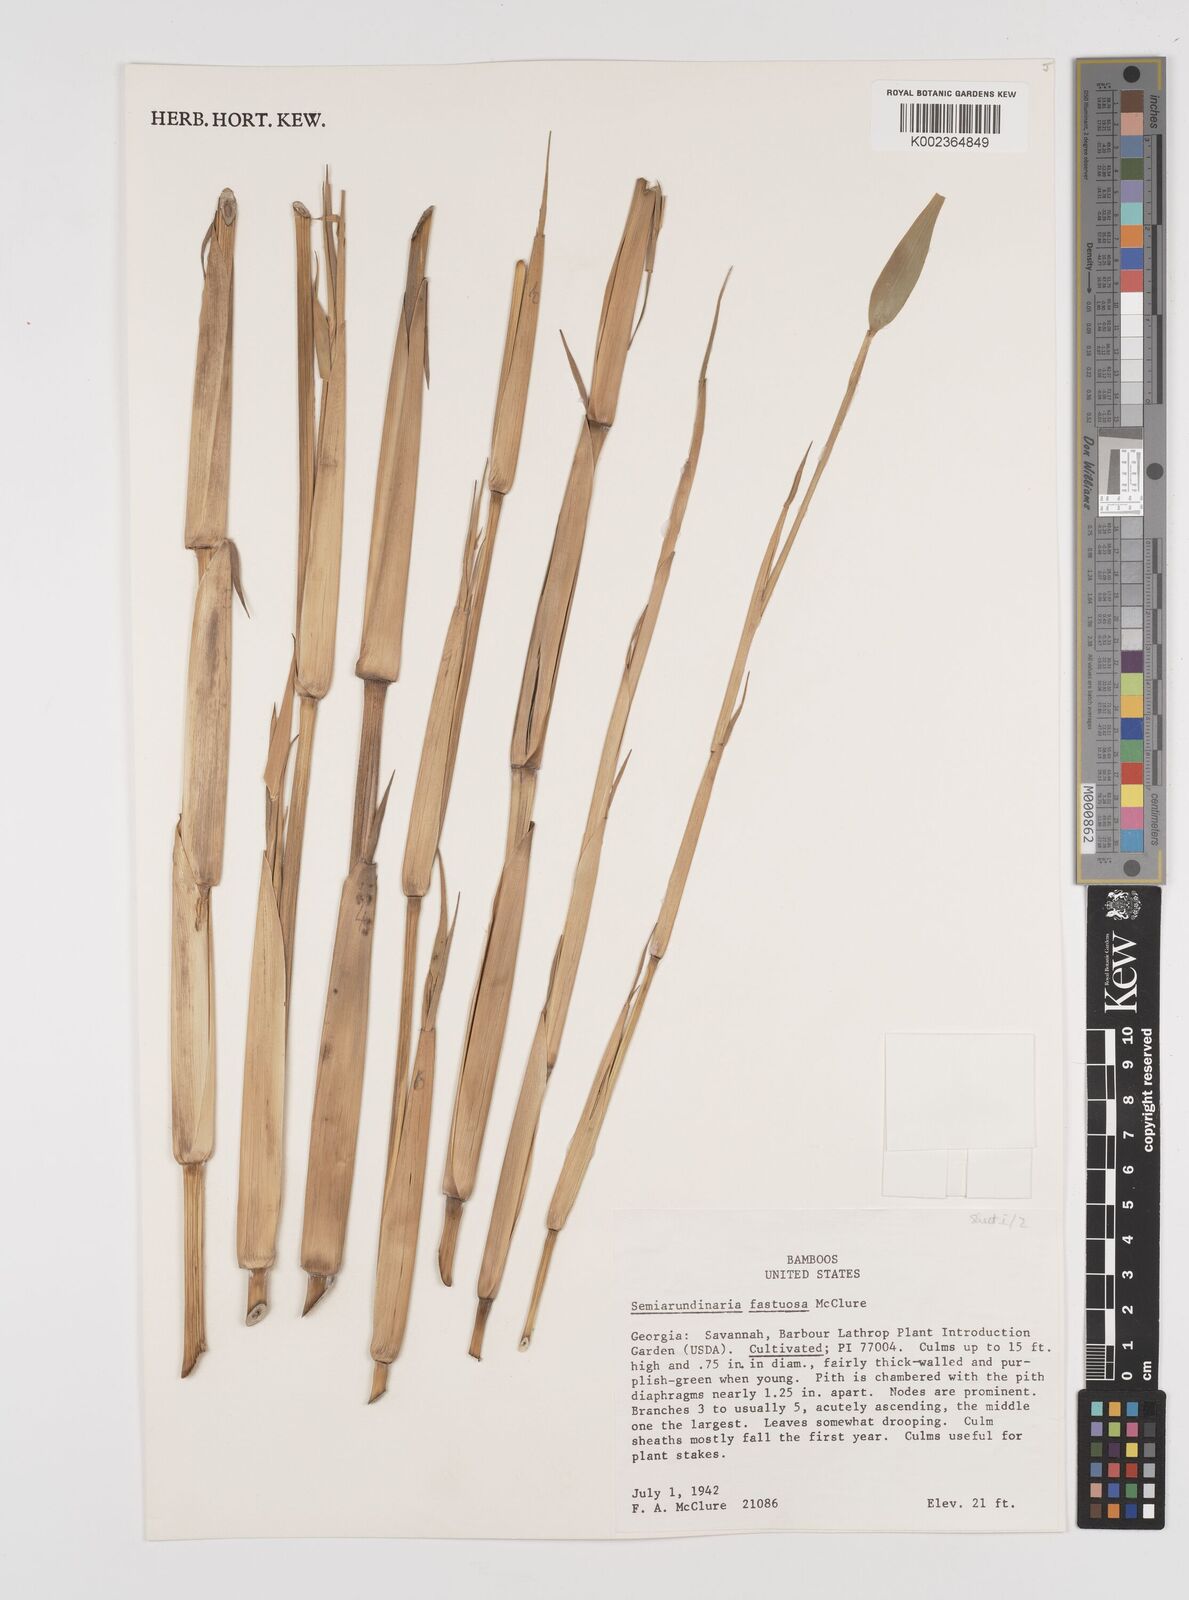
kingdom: Plantae
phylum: Tracheophyta
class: Liliopsida
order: Poales
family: Poaceae
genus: Semiarundinaria
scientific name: Semiarundinaria fastuosa
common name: Narihira bamboo
